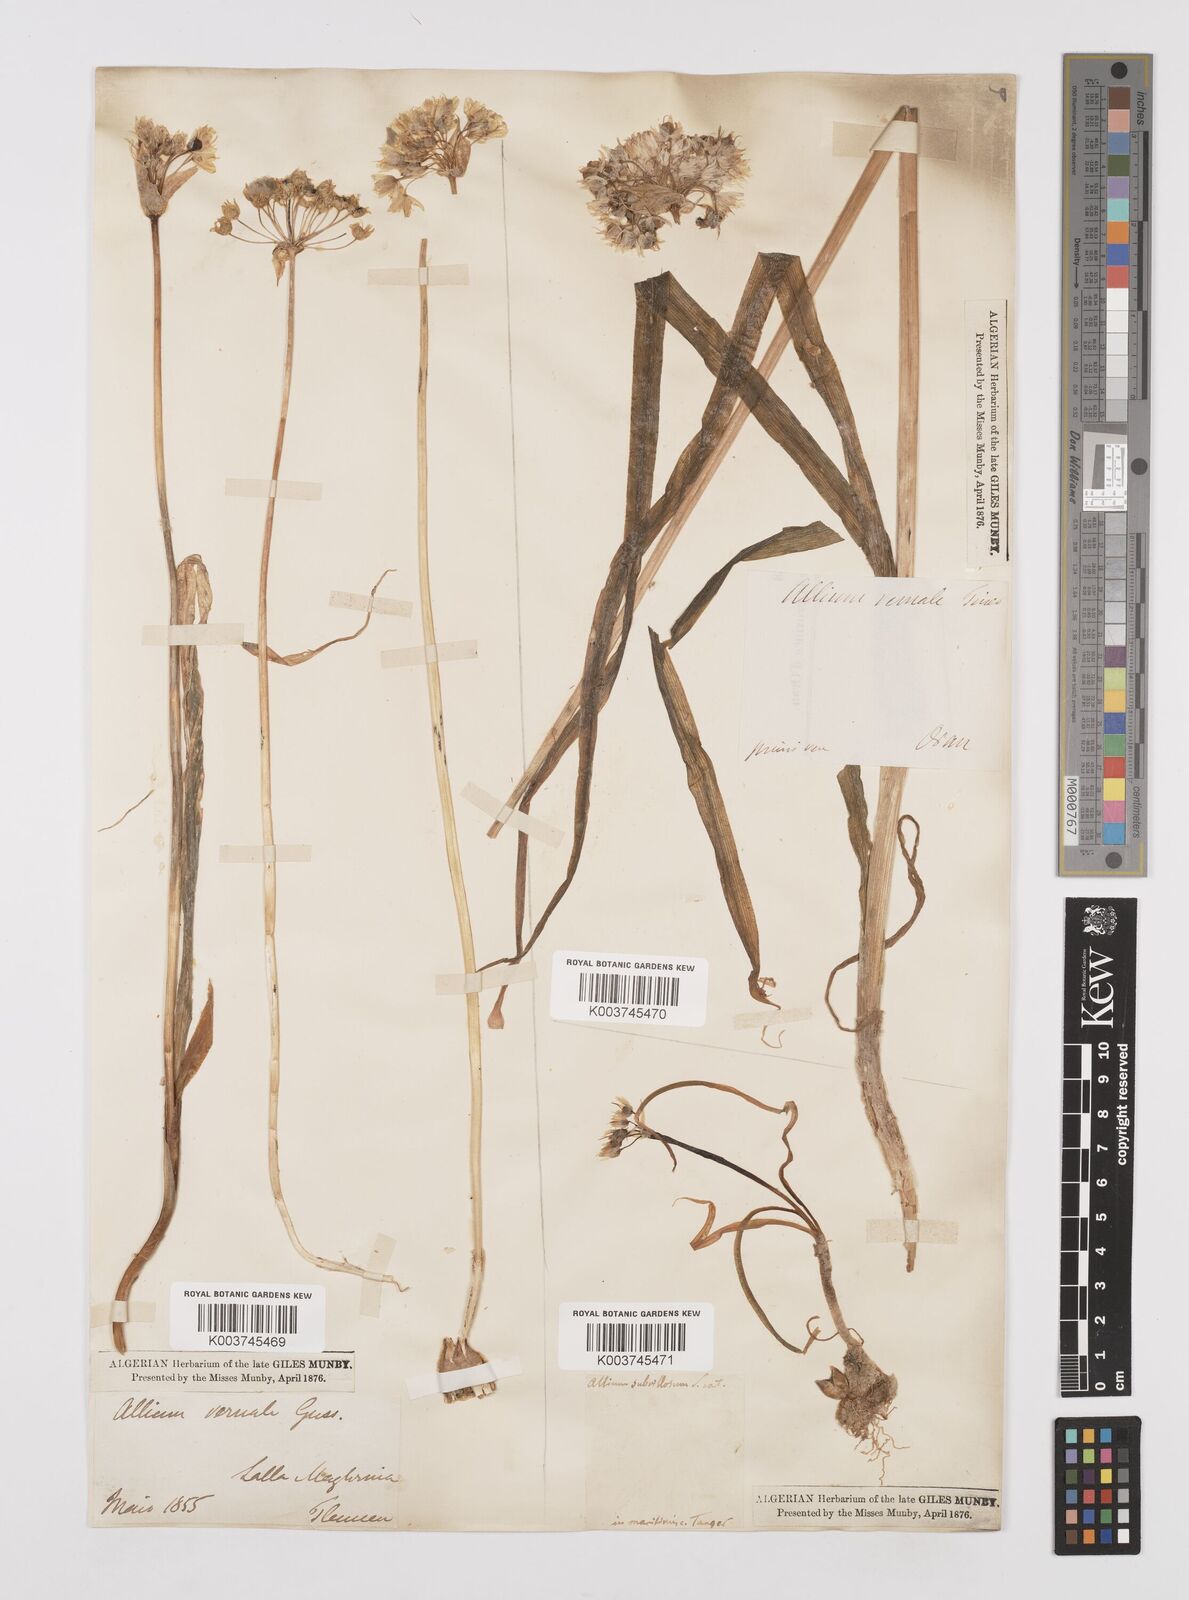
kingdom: Plantae
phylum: Tracheophyta
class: Liliopsida
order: Asparagales
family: Amaryllidaceae
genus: Allium
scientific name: Allium subhirsutum
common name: Hairy garlic
